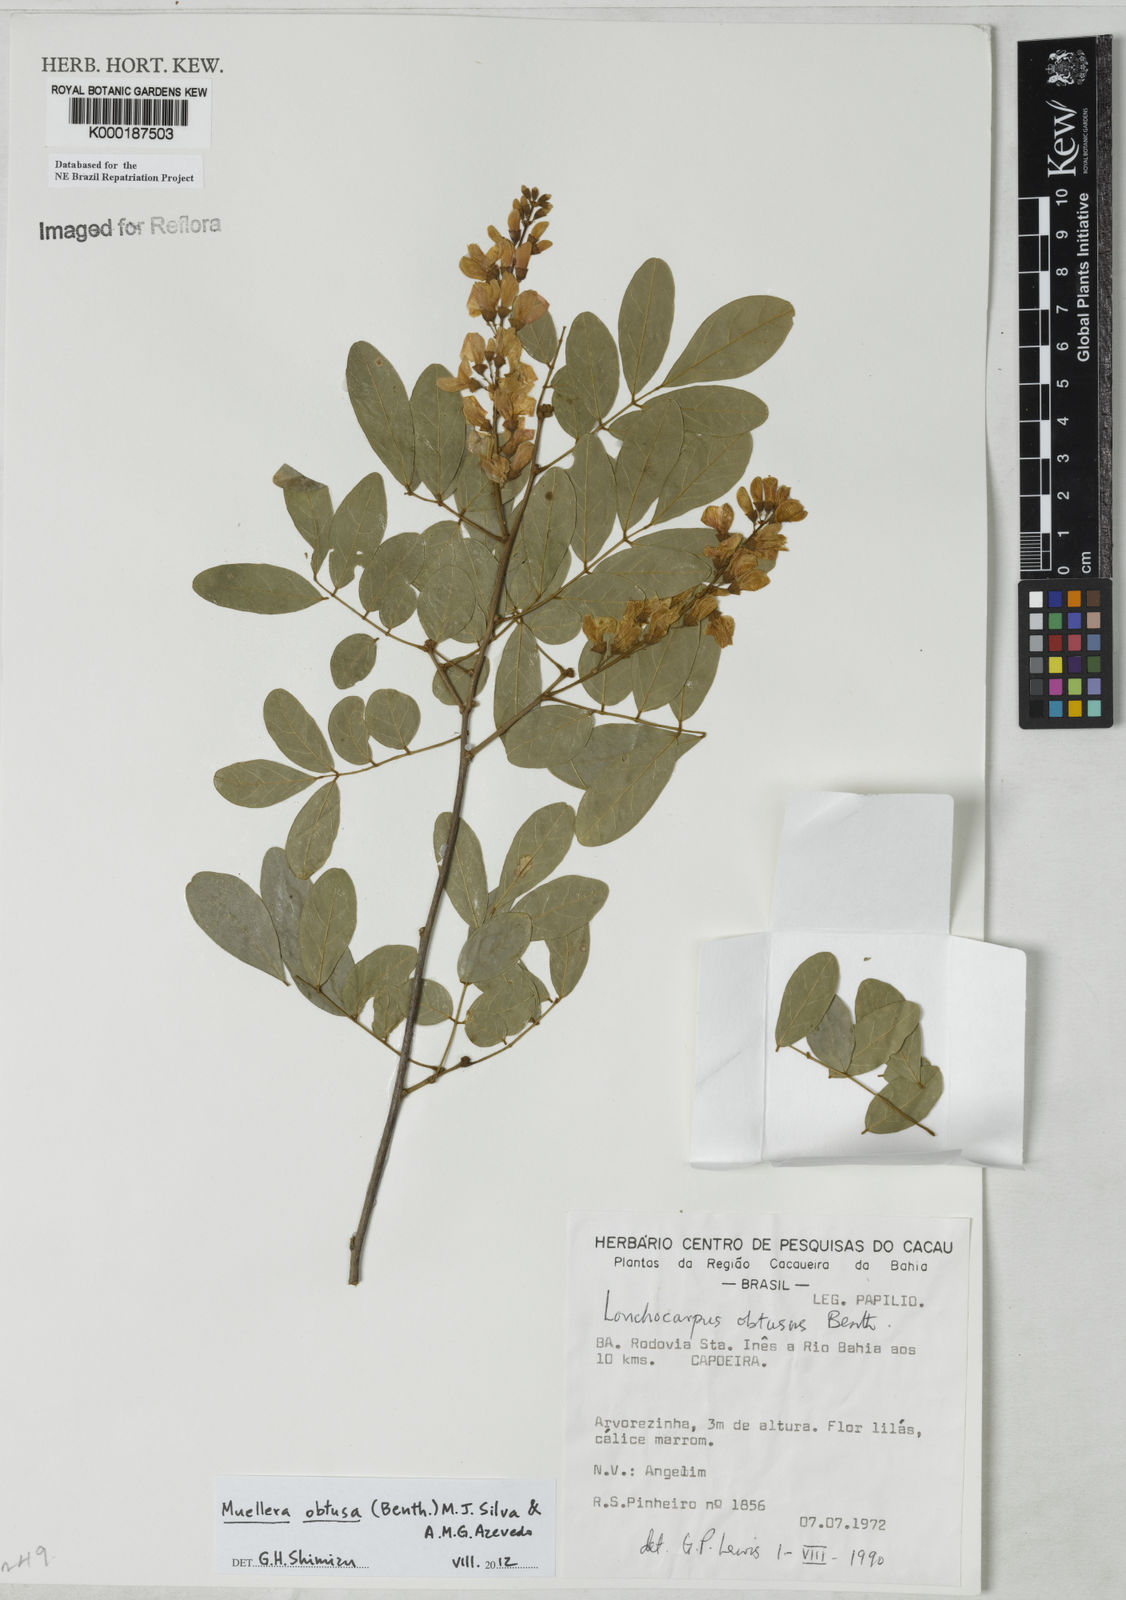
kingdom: Plantae
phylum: Tracheophyta
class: Magnoliopsida
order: Fabales
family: Fabaceae
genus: Muellera
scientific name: Muellera obtusa
